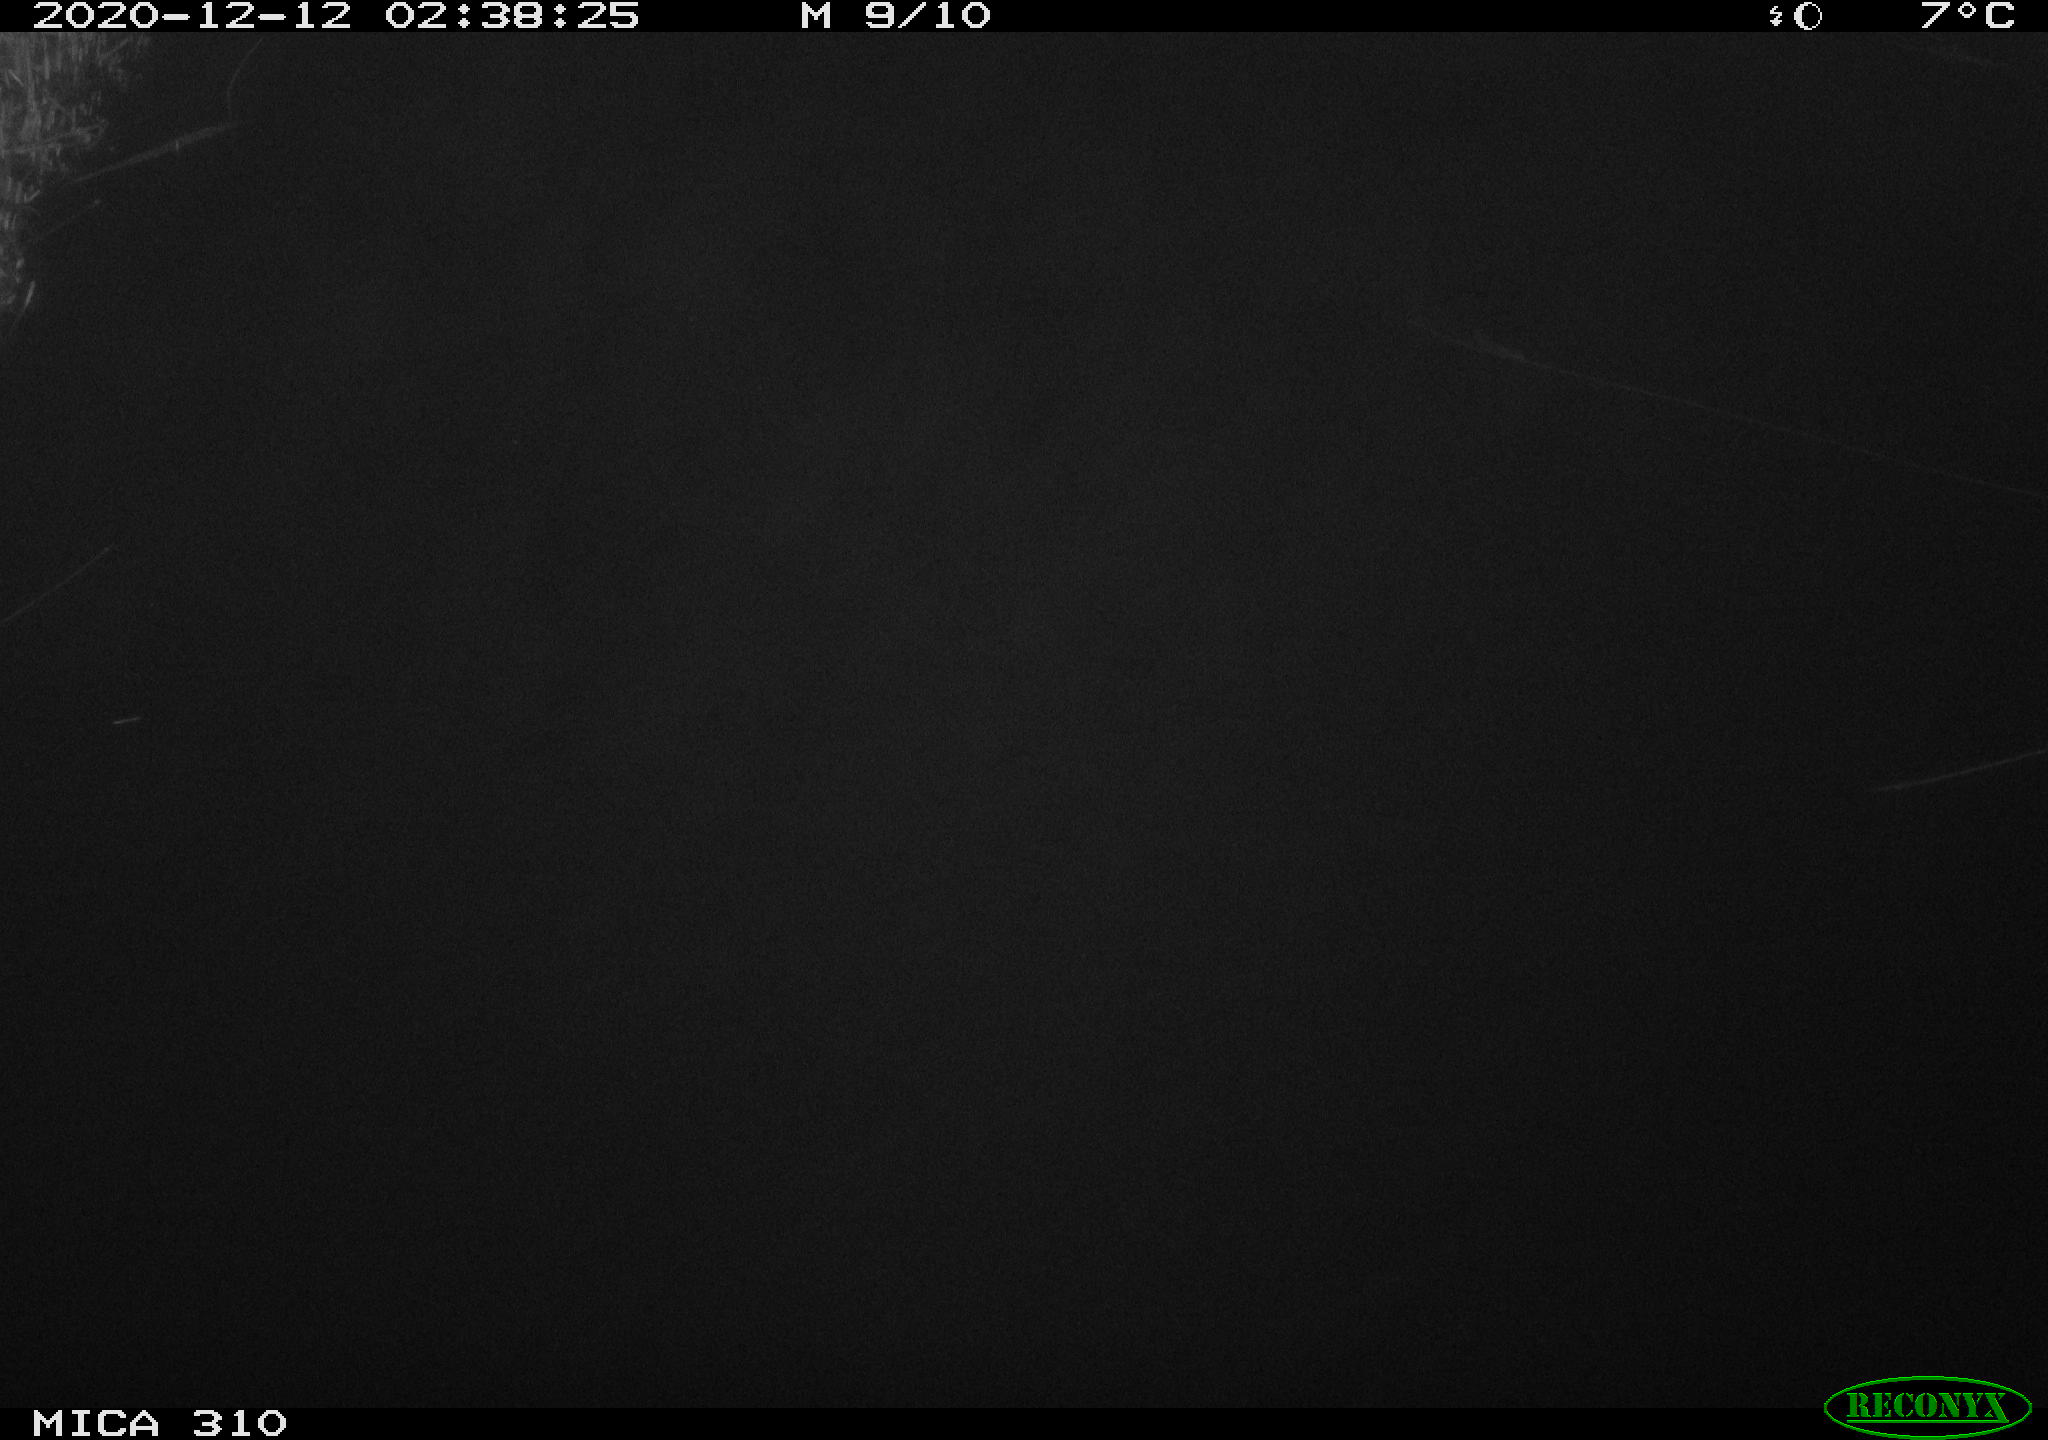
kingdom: Animalia
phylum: Chordata
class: Mammalia
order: Rodentia
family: Muridae
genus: Rattus
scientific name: Rattus norvegicus
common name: Brown rat
